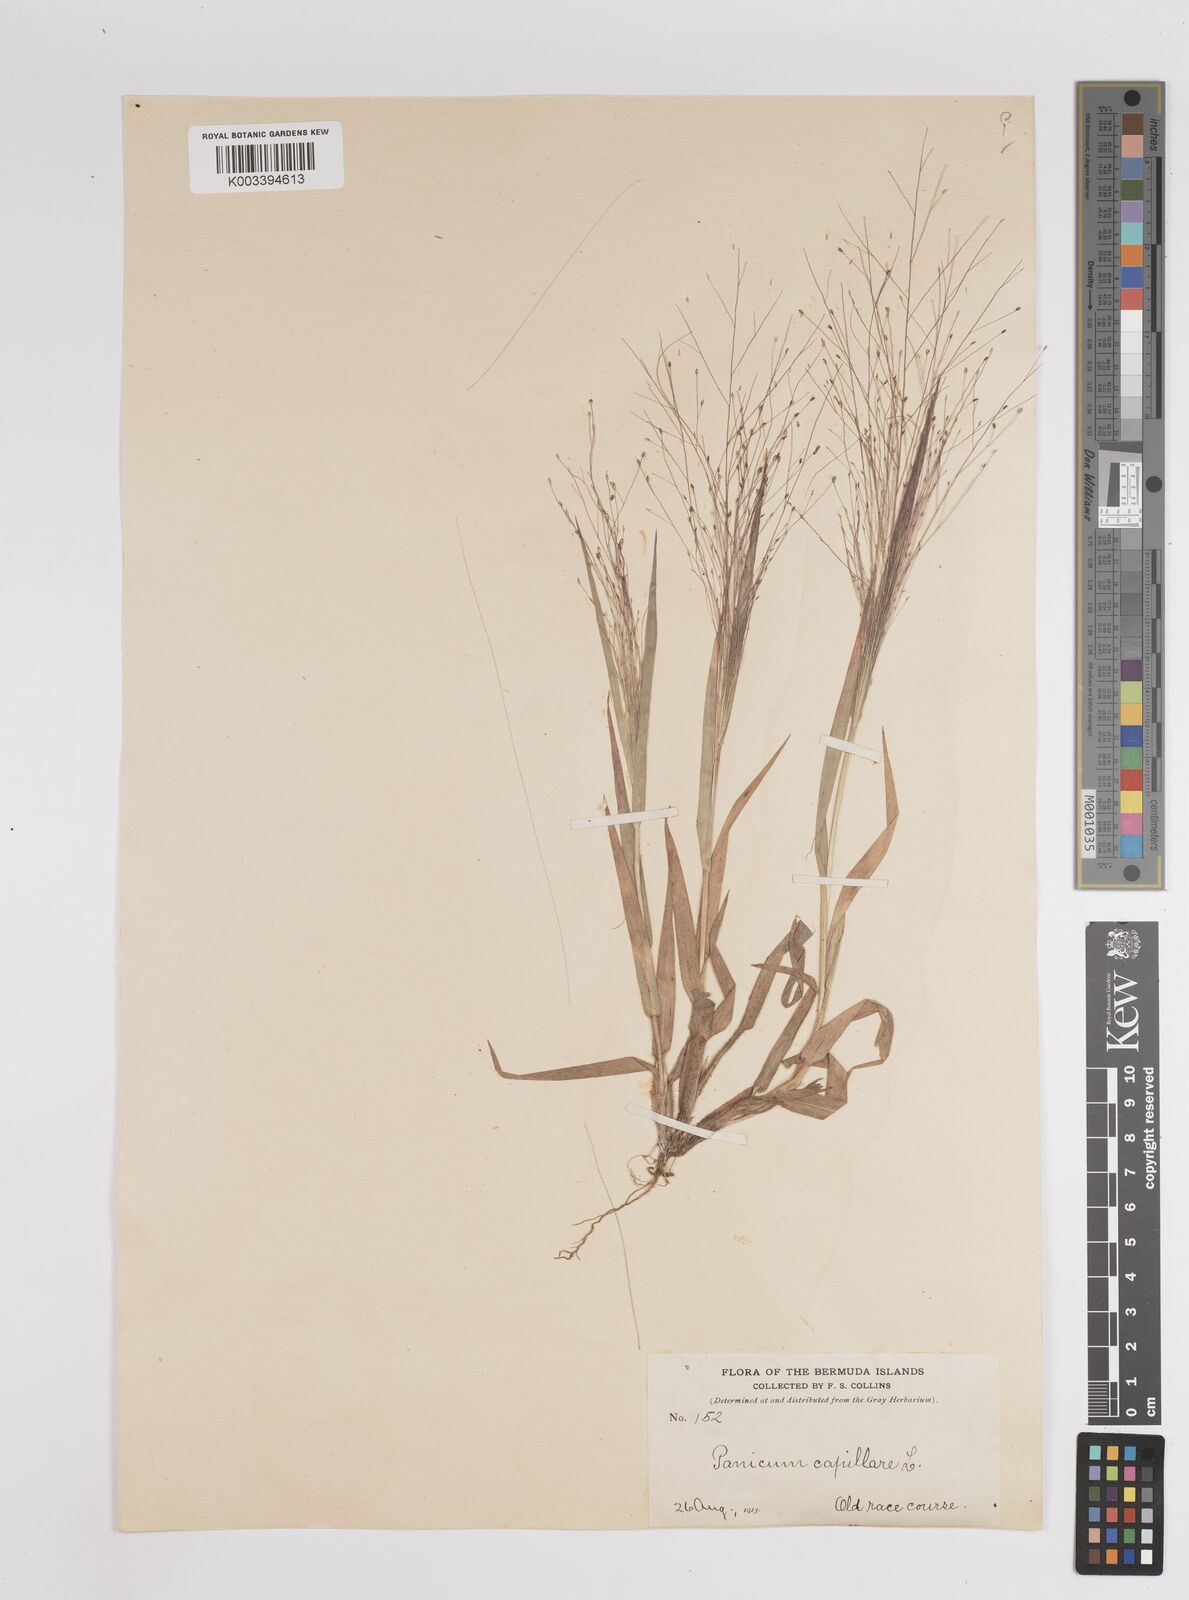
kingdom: Plantae
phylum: Tracheophyta
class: Liliopsida
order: Poales
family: Poaceae
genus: Panicum
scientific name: Panicum capillare
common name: Witch-grass
